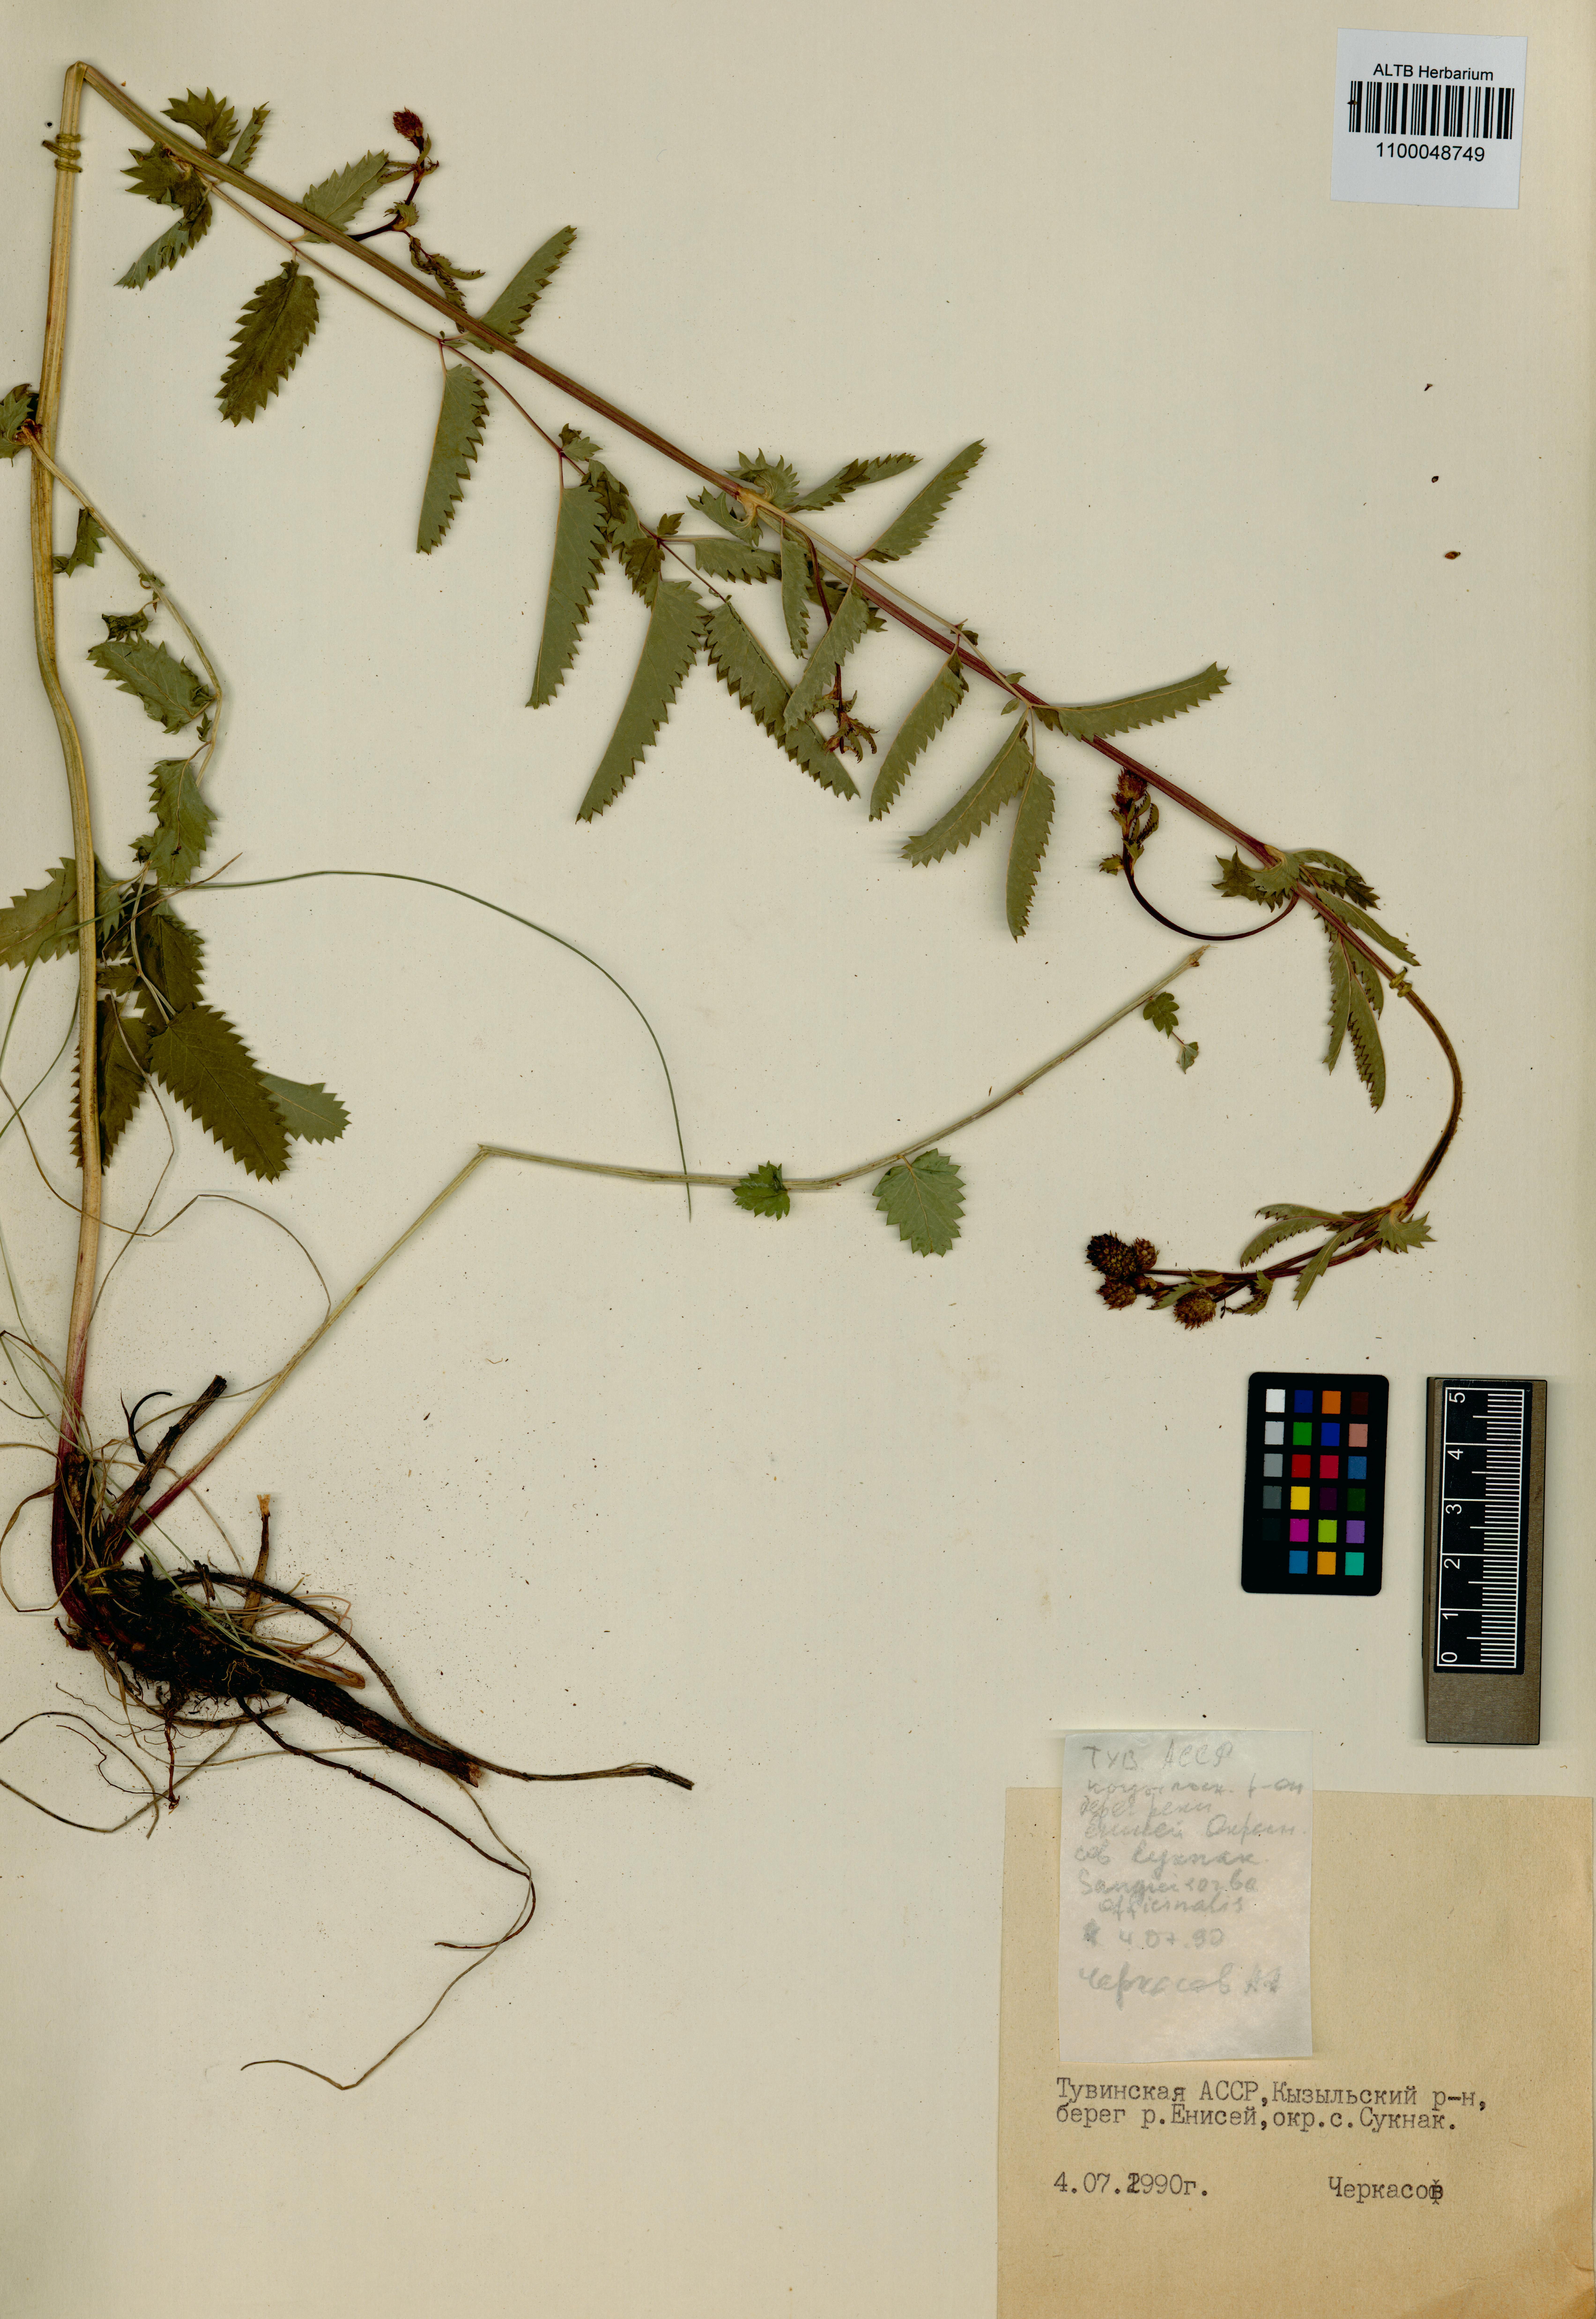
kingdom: Plantae
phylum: Tracheophyta
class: Magnoliopsida
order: Rosales
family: Rosaceae
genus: Sanguisorba
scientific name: Sanguisorba officinalis
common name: Great burnet
